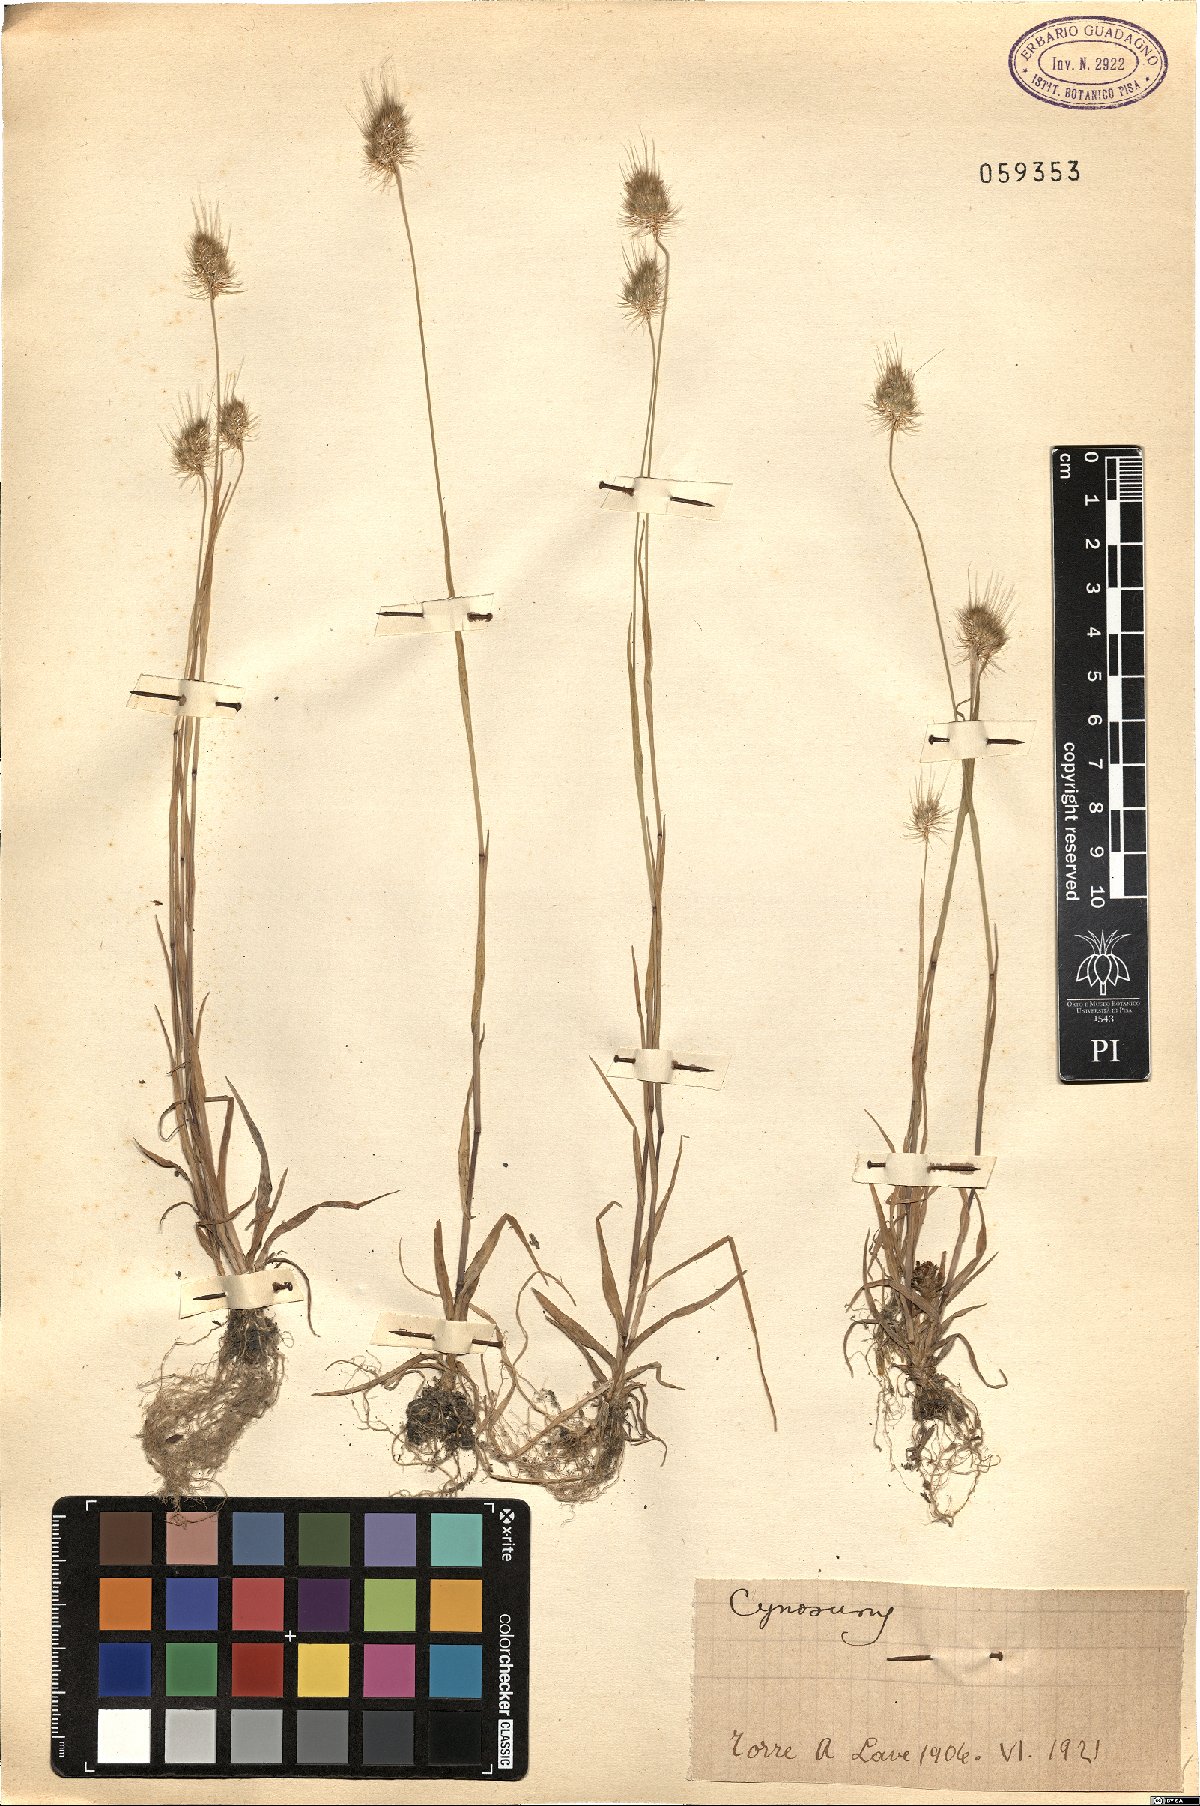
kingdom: Plantae
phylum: Tracheophyta
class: Liliopsida
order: Poales
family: Poaceae
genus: Cynosurus
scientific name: Cynosurus
